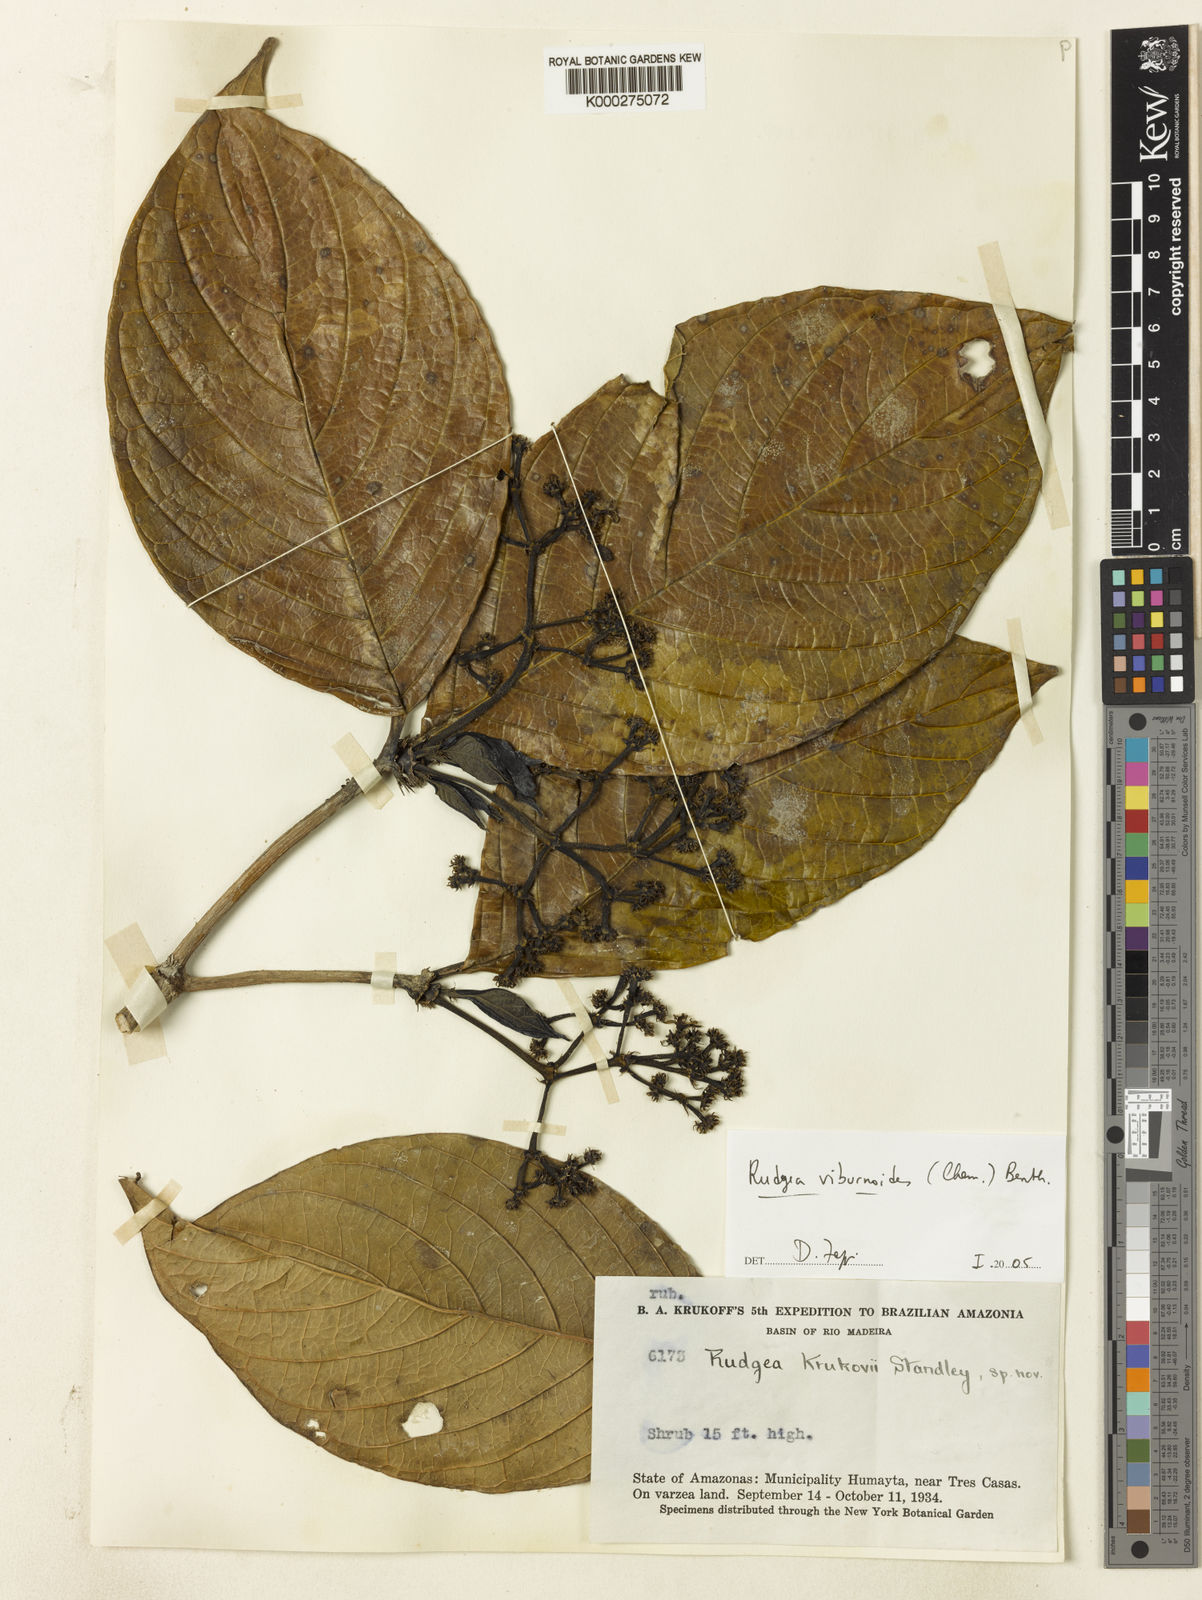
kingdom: Plantae
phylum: Tracheophyta
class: Magnoliopsida
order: Gentianales
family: Rubiaceae
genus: Rudgea
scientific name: Rudgea viburnoides
